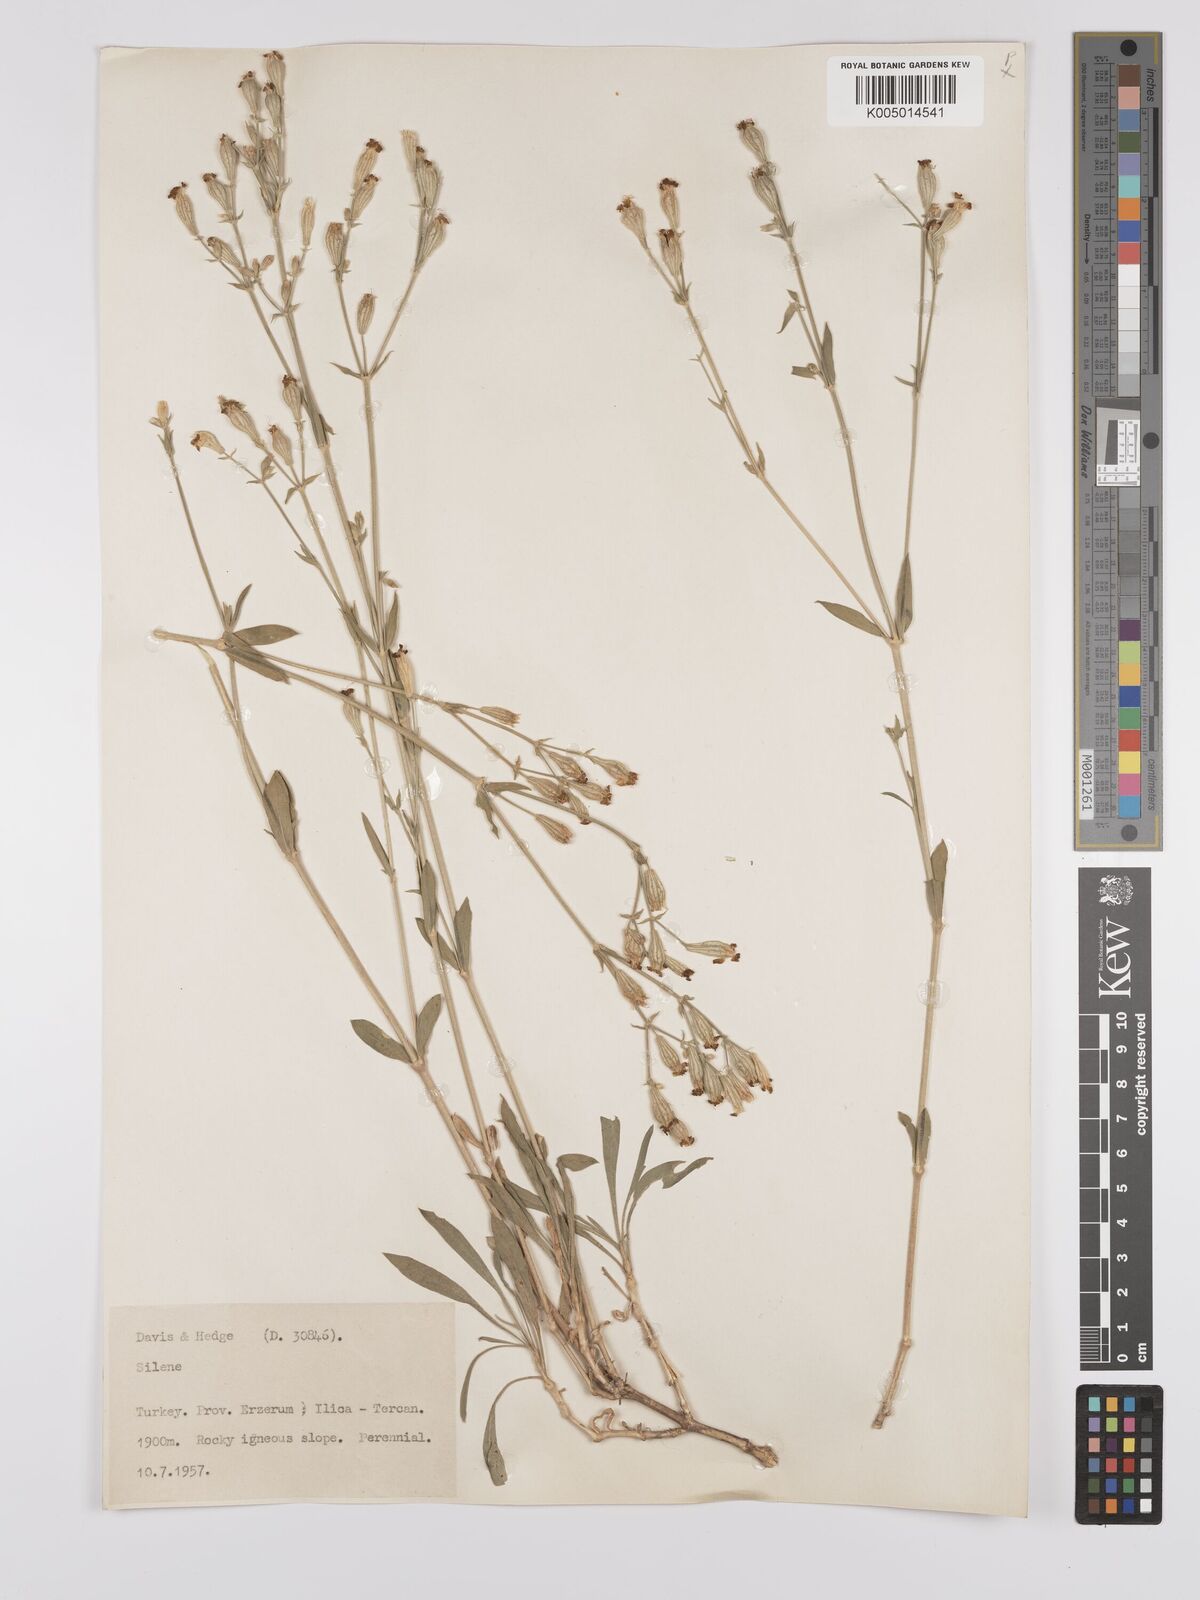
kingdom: Plantae
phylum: Tracheophyta
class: Magnoliopsida
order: Caryophyllales
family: Caryophyllaceae
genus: Silene
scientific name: Silene
